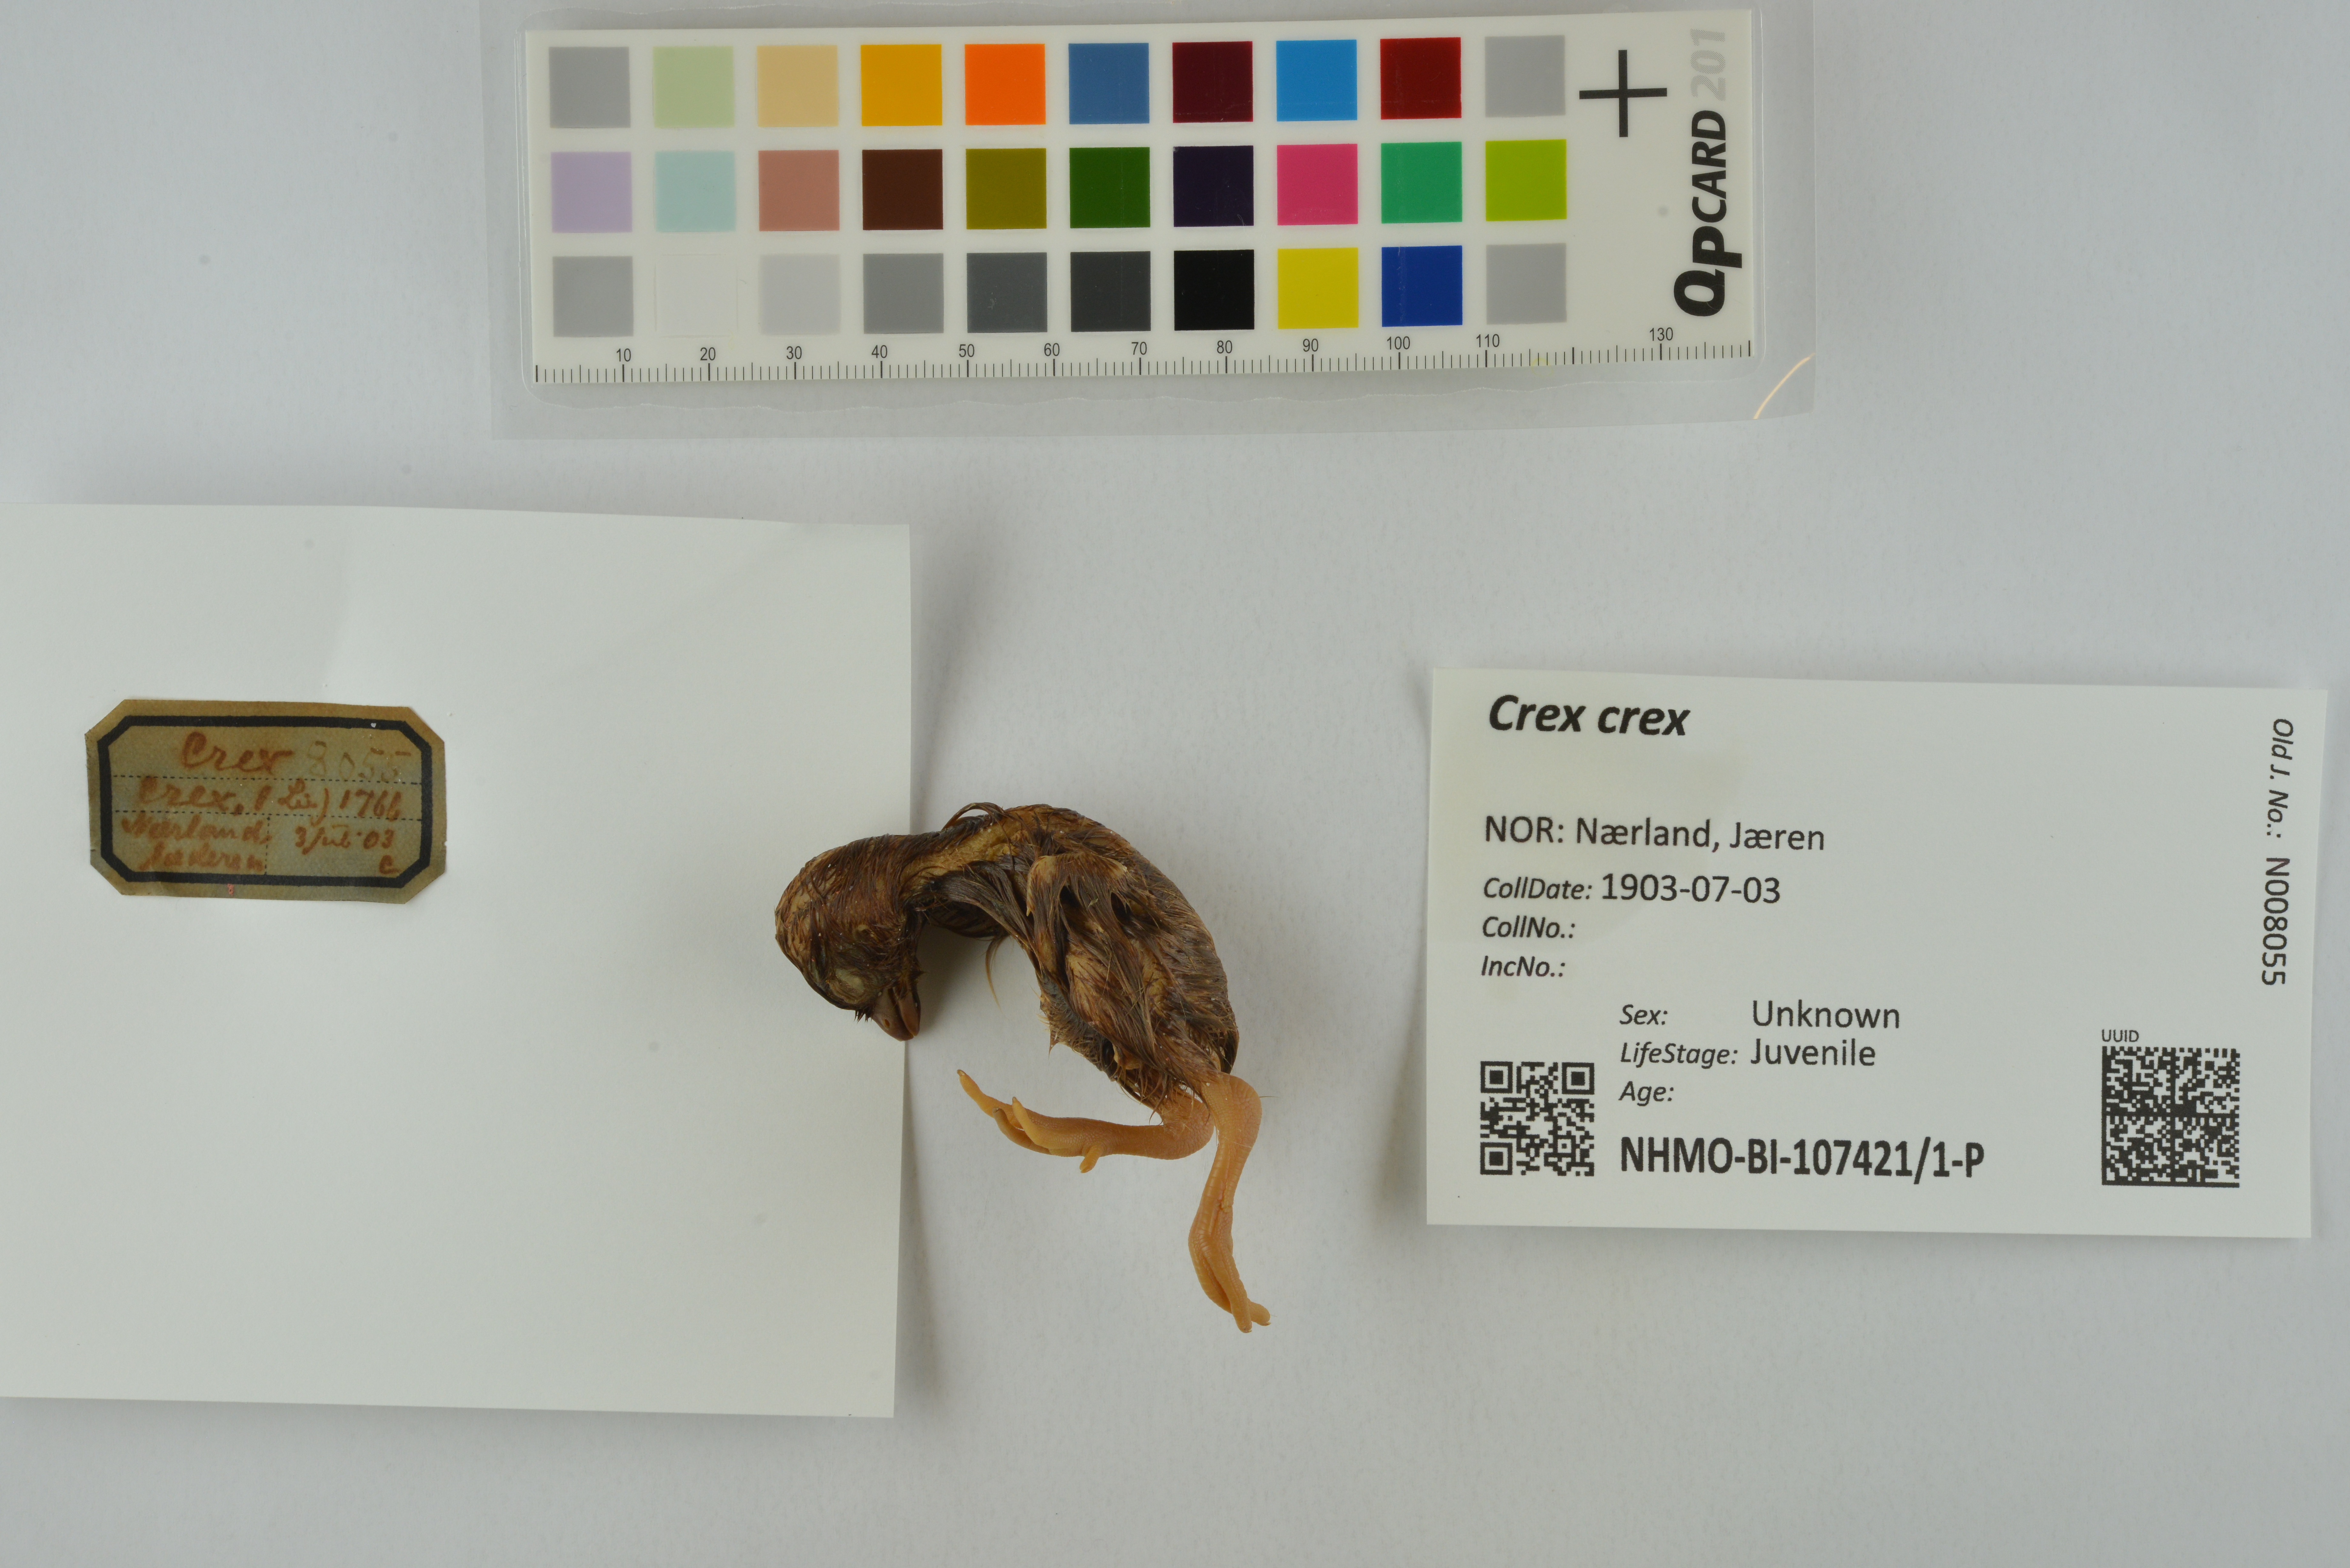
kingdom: Animalia
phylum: Chordata
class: Aves
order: Gruiformes
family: Rallidae
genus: Crex
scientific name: Crex crex
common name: Corn crake
